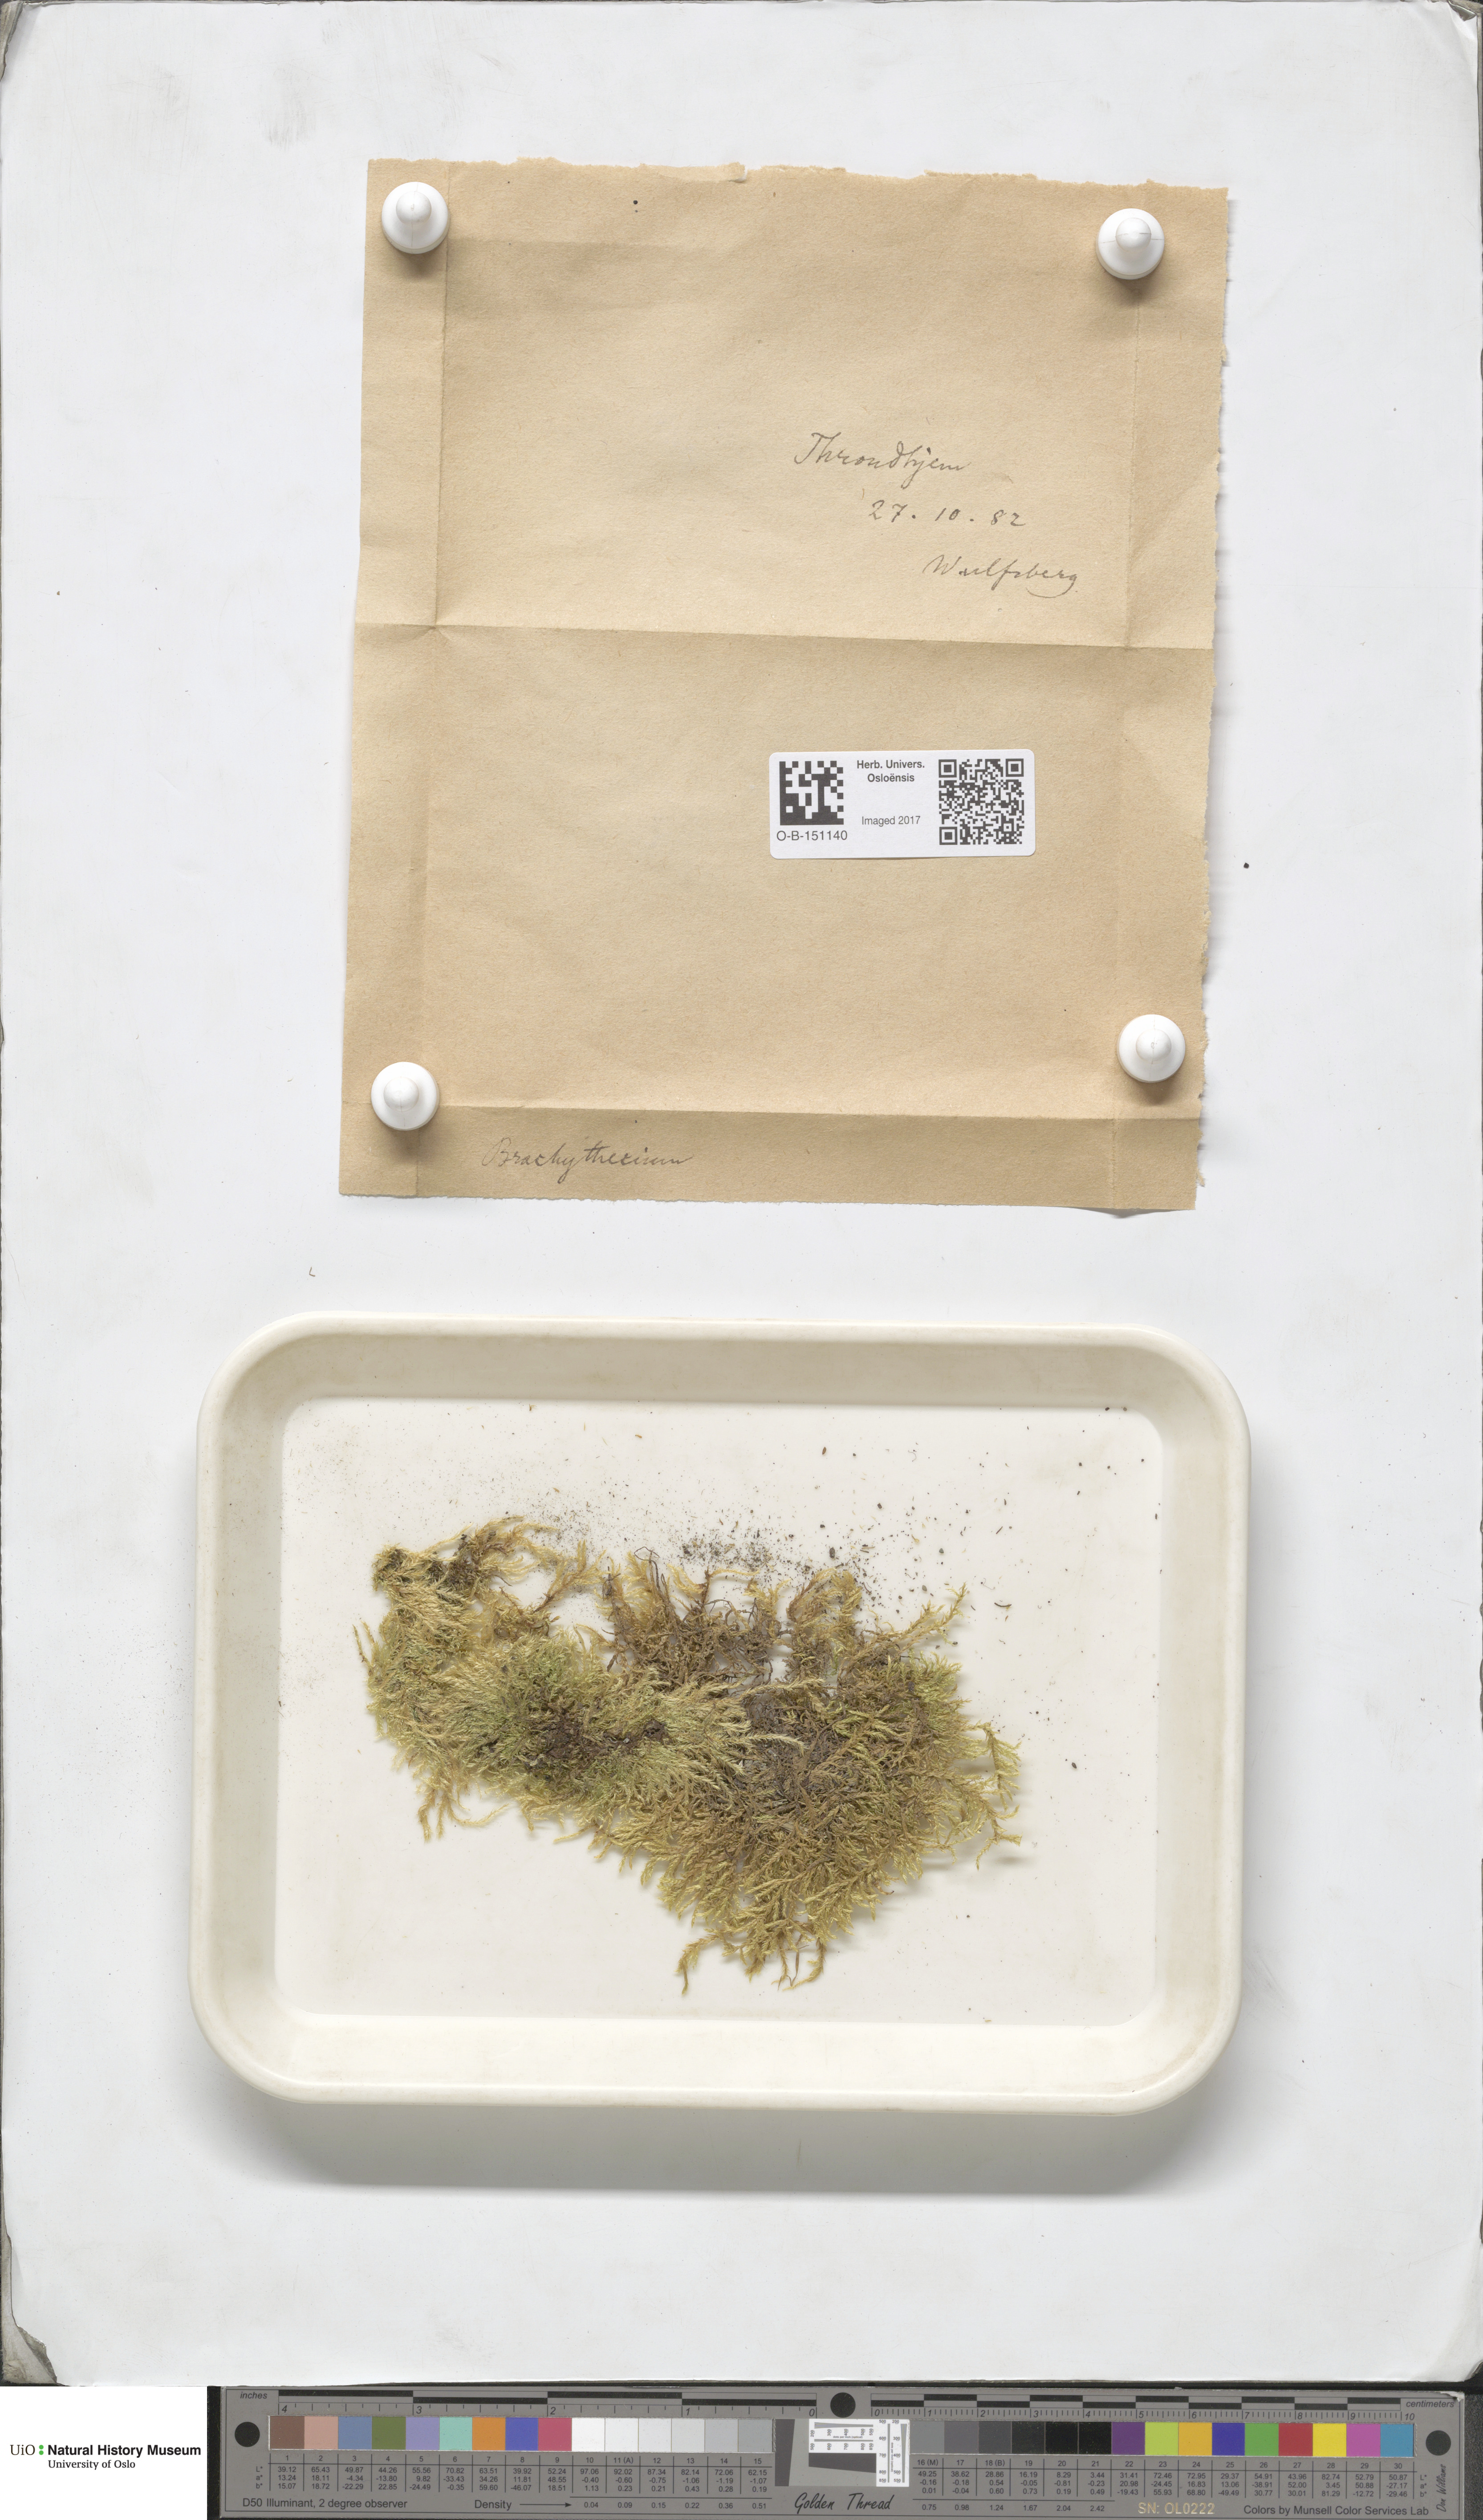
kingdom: Plantae
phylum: Bryophyta
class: Bryopsida
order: Hypnales
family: Brachytheciaceae
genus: Brachythecium
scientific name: Brachythecium
